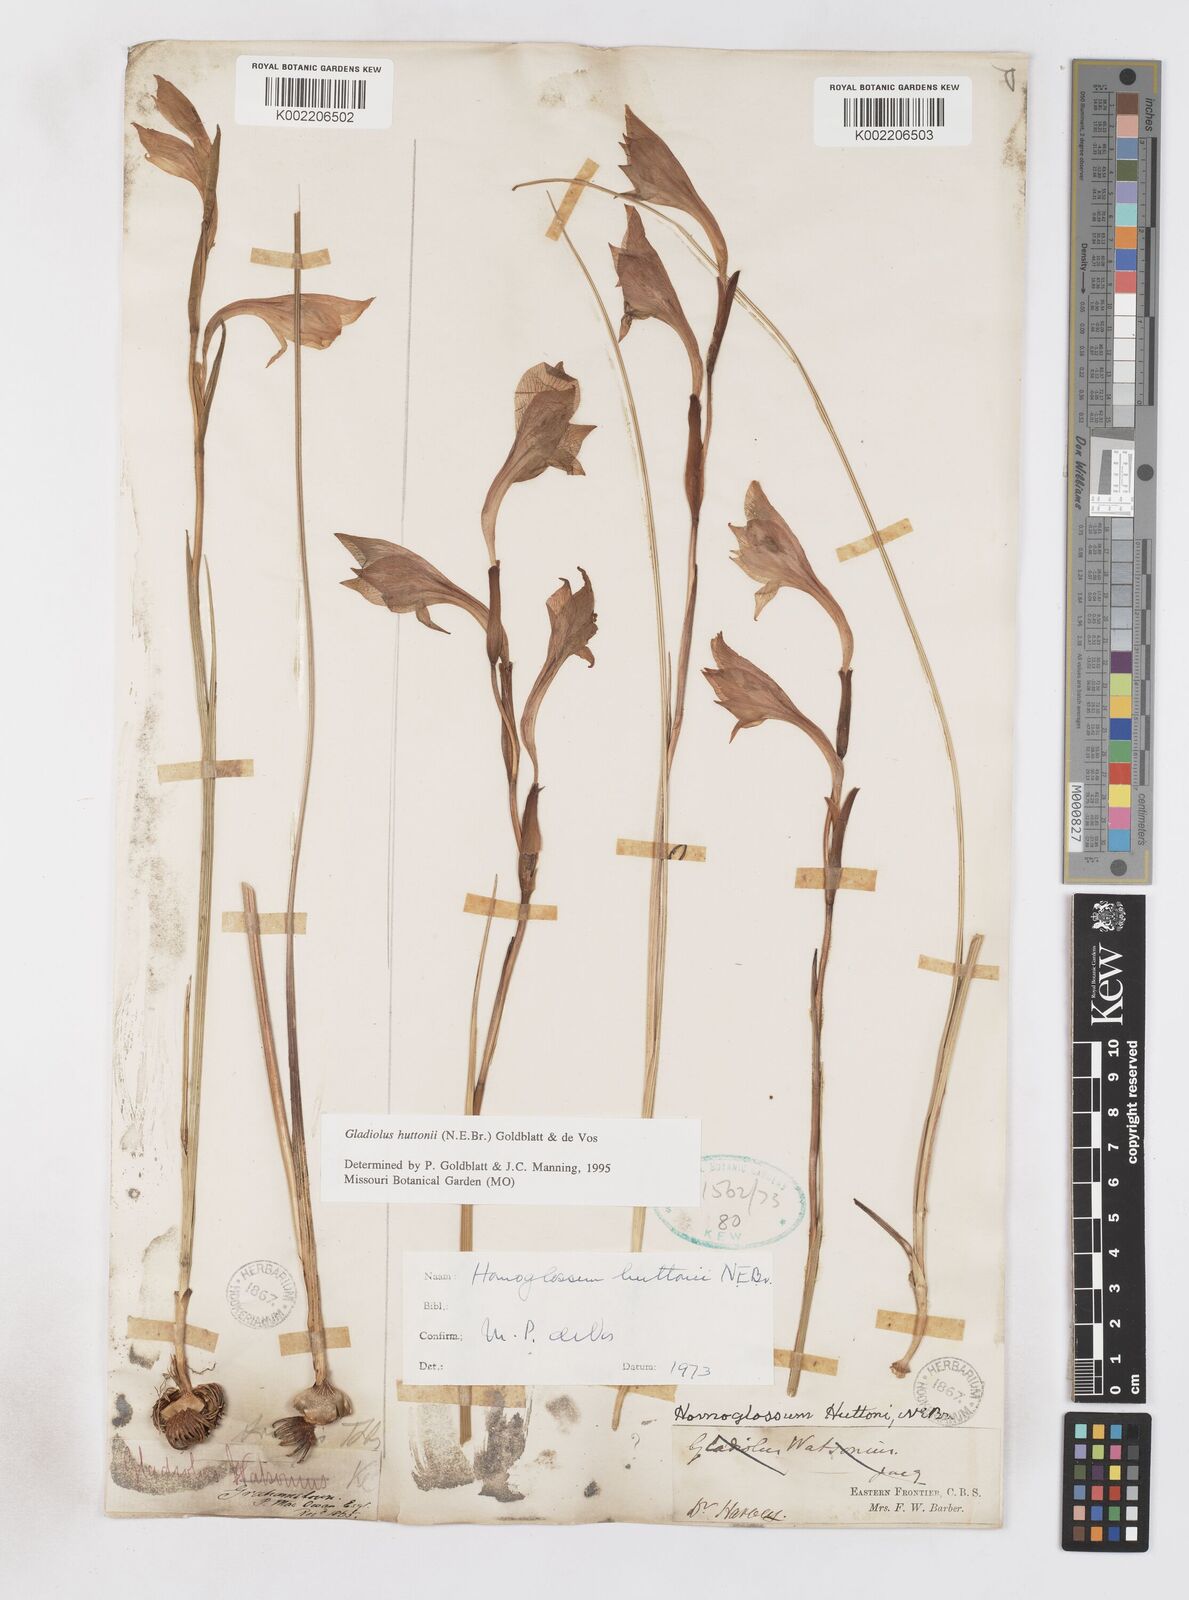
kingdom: Plantae
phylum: Tracheophyta
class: Liliopsida
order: Asparagales
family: Iridaceae
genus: Gladiolus
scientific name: Gladiolus huttonii
